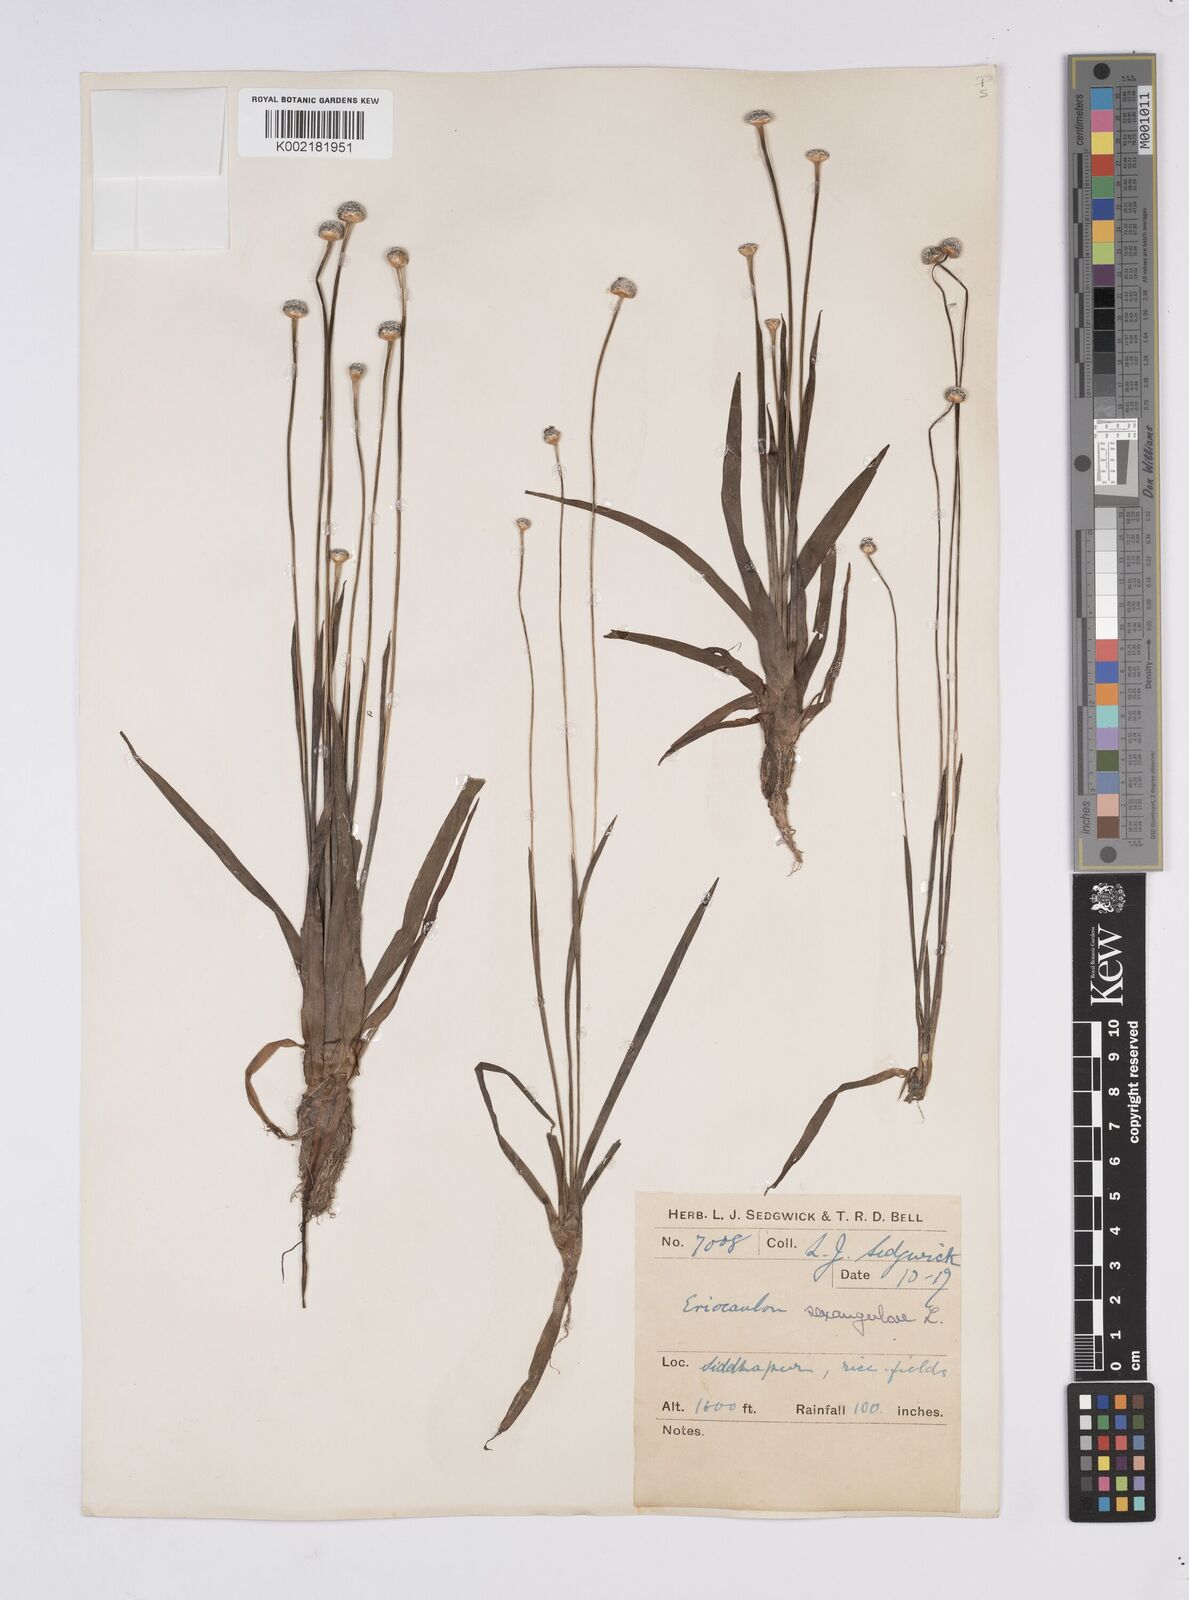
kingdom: Plantae
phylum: Tracheophyta
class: Liliopsida
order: Poales
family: Eriocaulaceae
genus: Eriocaulon
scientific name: Eriocaulon sexangulare
